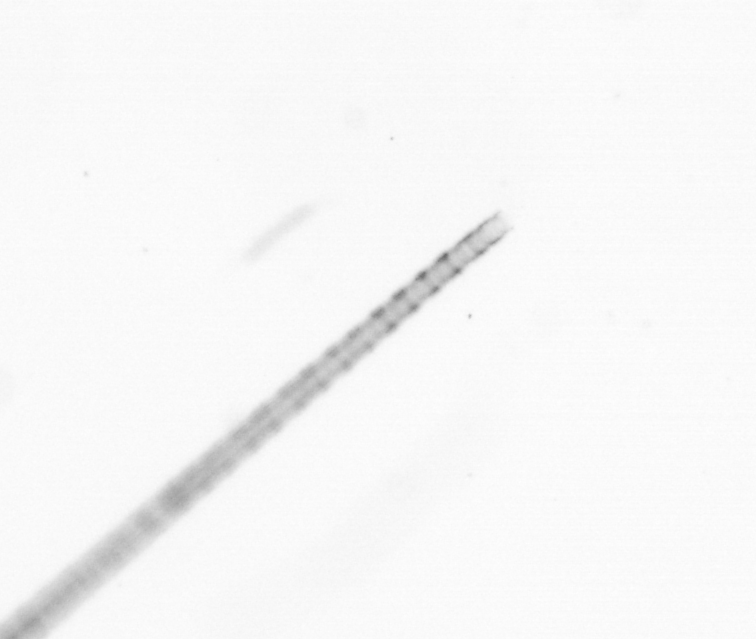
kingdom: Chromista
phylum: Ochrophyta
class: Bacillariophyceae
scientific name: Bacillariophyceae
